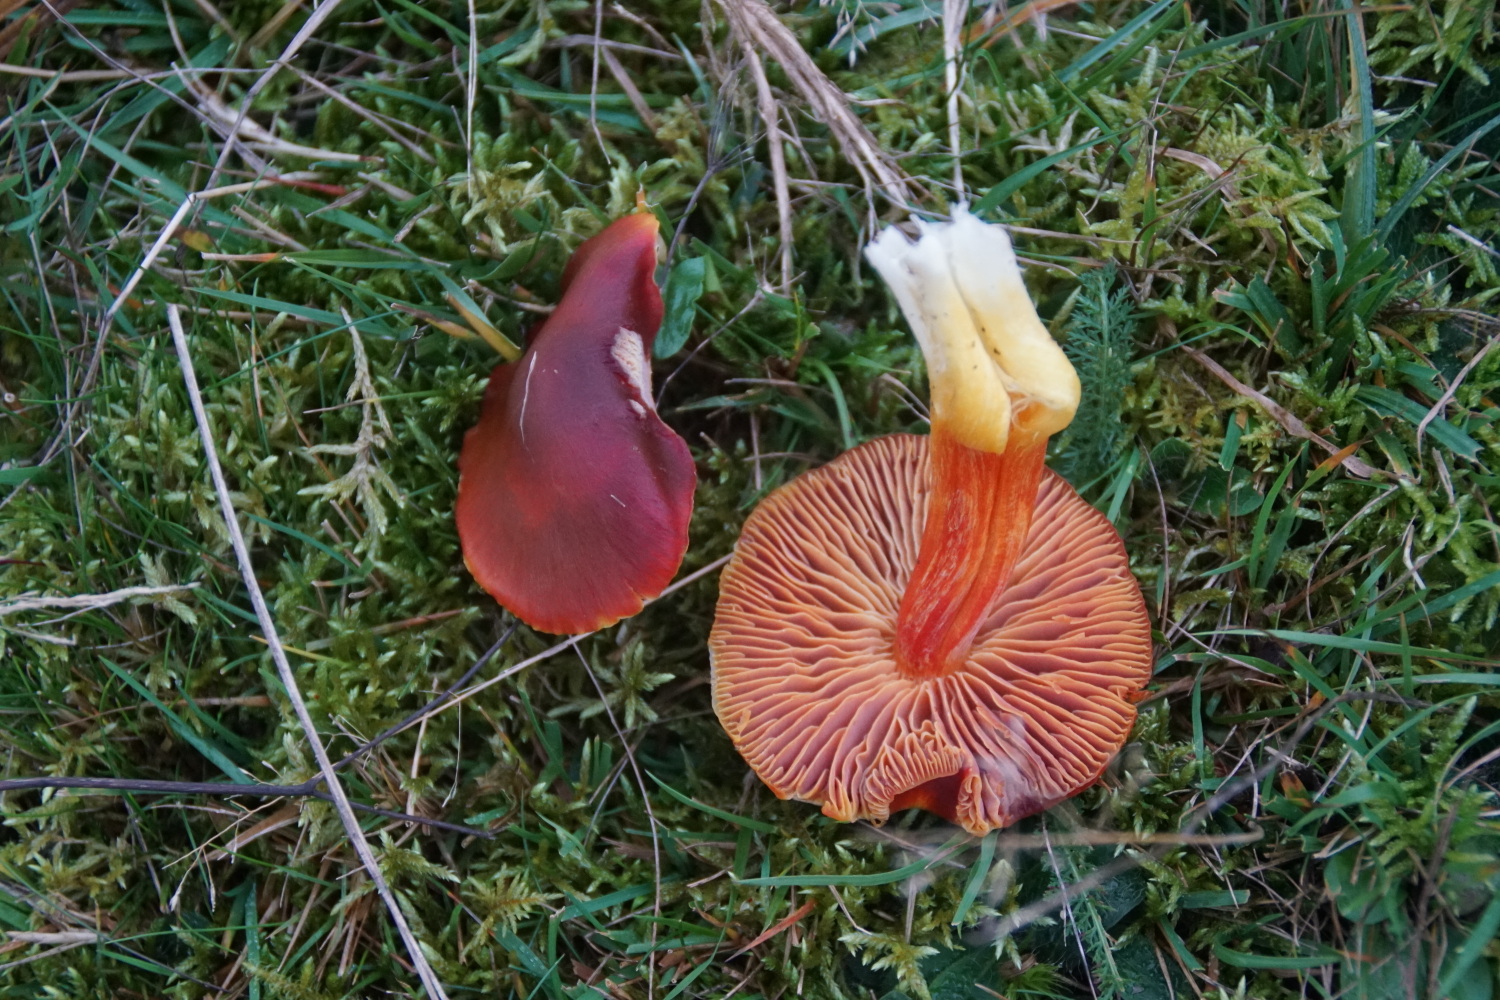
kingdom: Fungi
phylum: Basidiomycota
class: Agaricomycetes
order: Agaricales
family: Hygrophoraceae
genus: Hygrocybe
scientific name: Hygrocybe punicea
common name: skarlagen-vokshat
